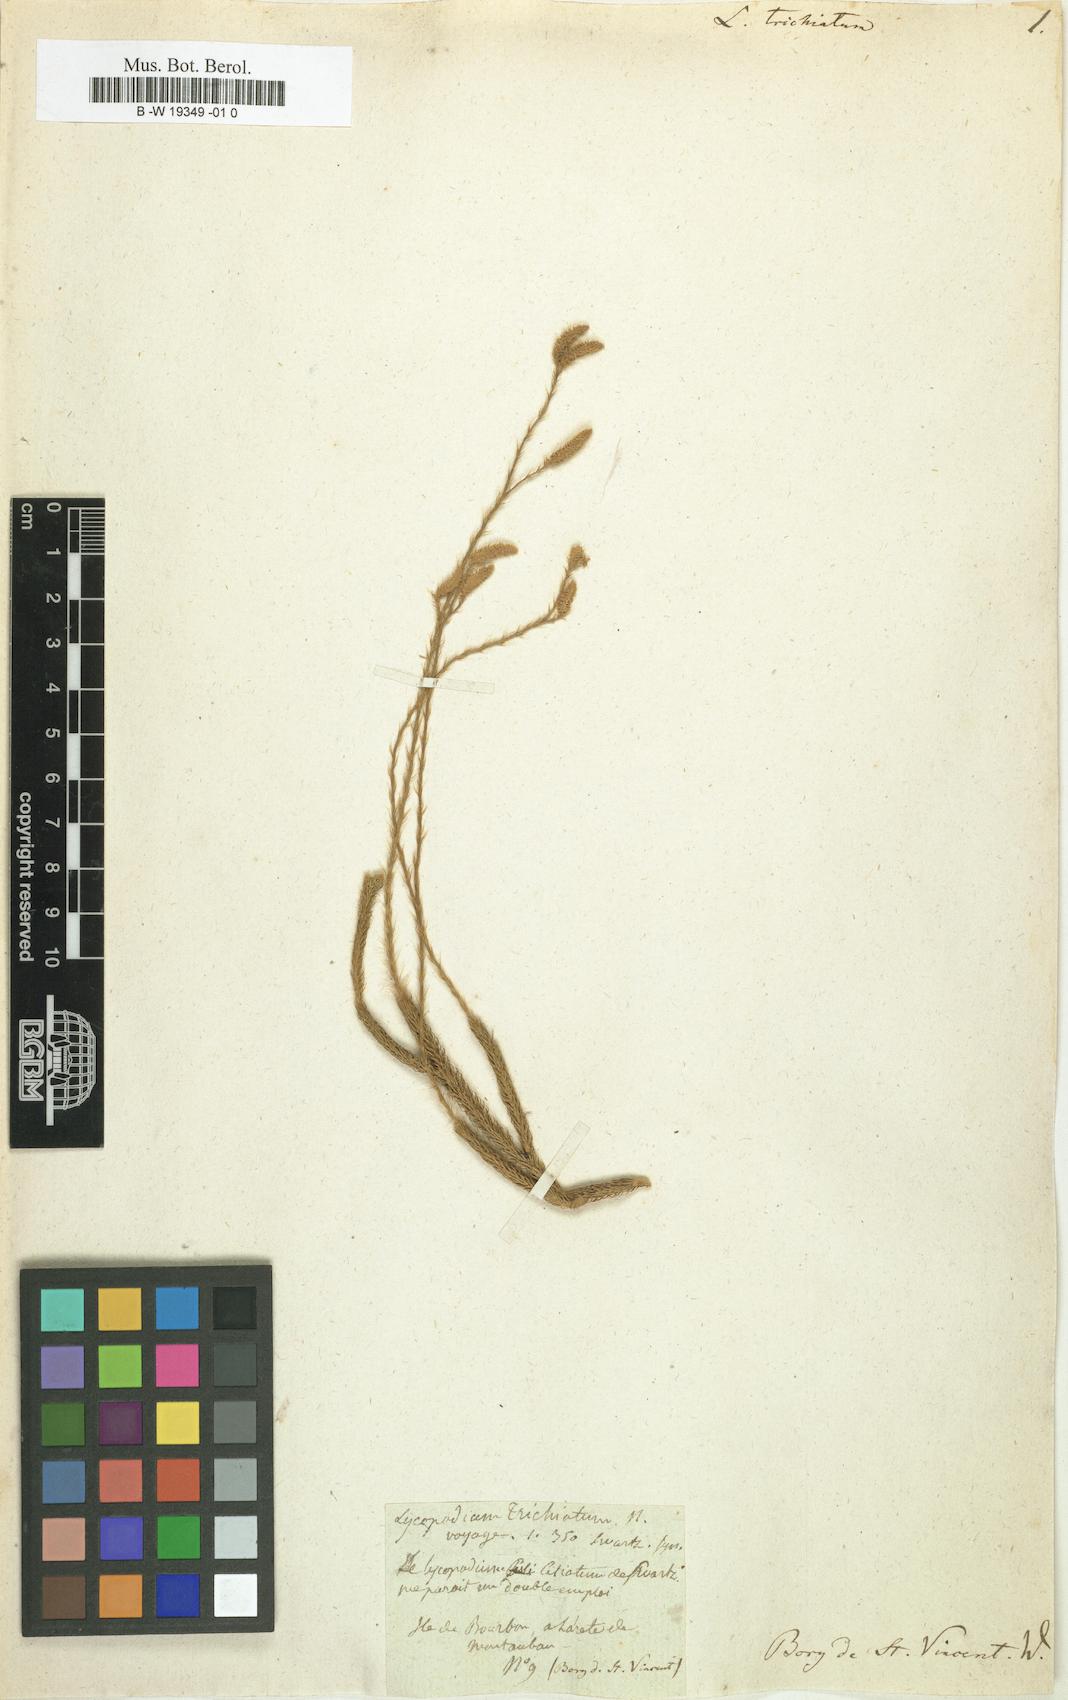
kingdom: Plantae
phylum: Tracheophyta
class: Lycopodiopsida
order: Lycopodiales
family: Lycopodiaceae
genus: Lycopodium
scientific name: Lycopodium clavatum
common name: Stag's-horn clubmoss
